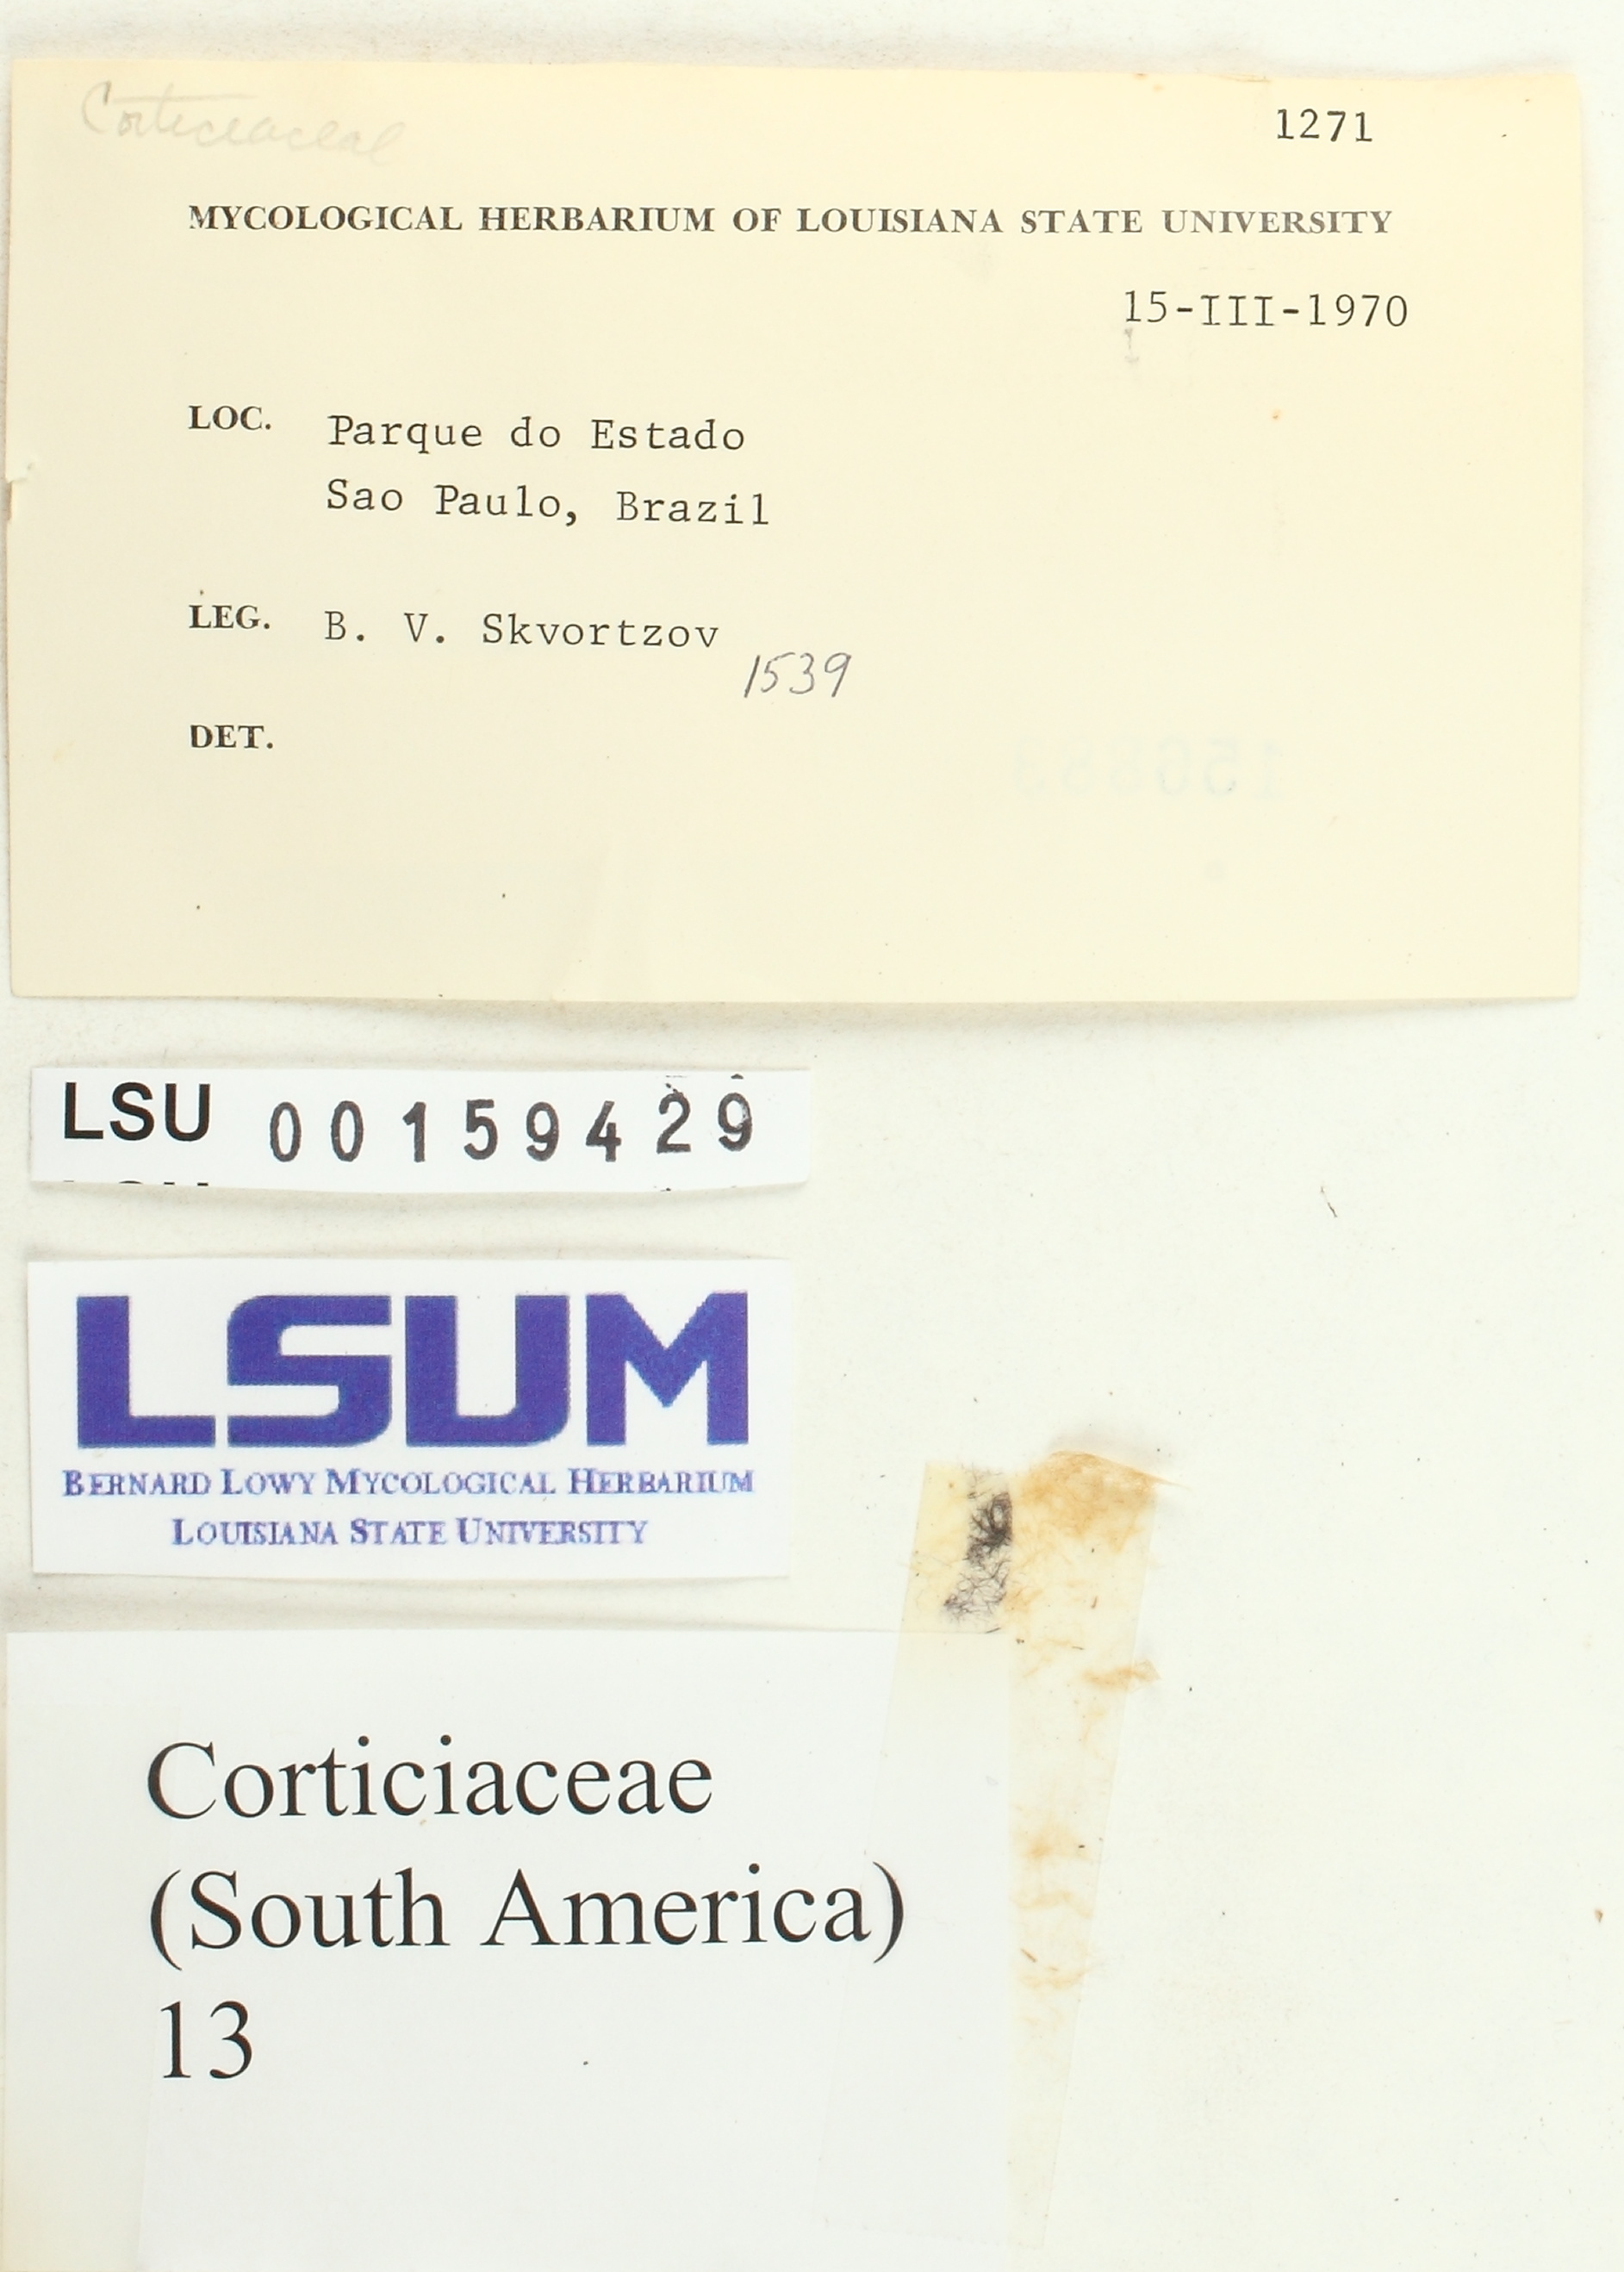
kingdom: Fungi
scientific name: Fungi
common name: Fungi
